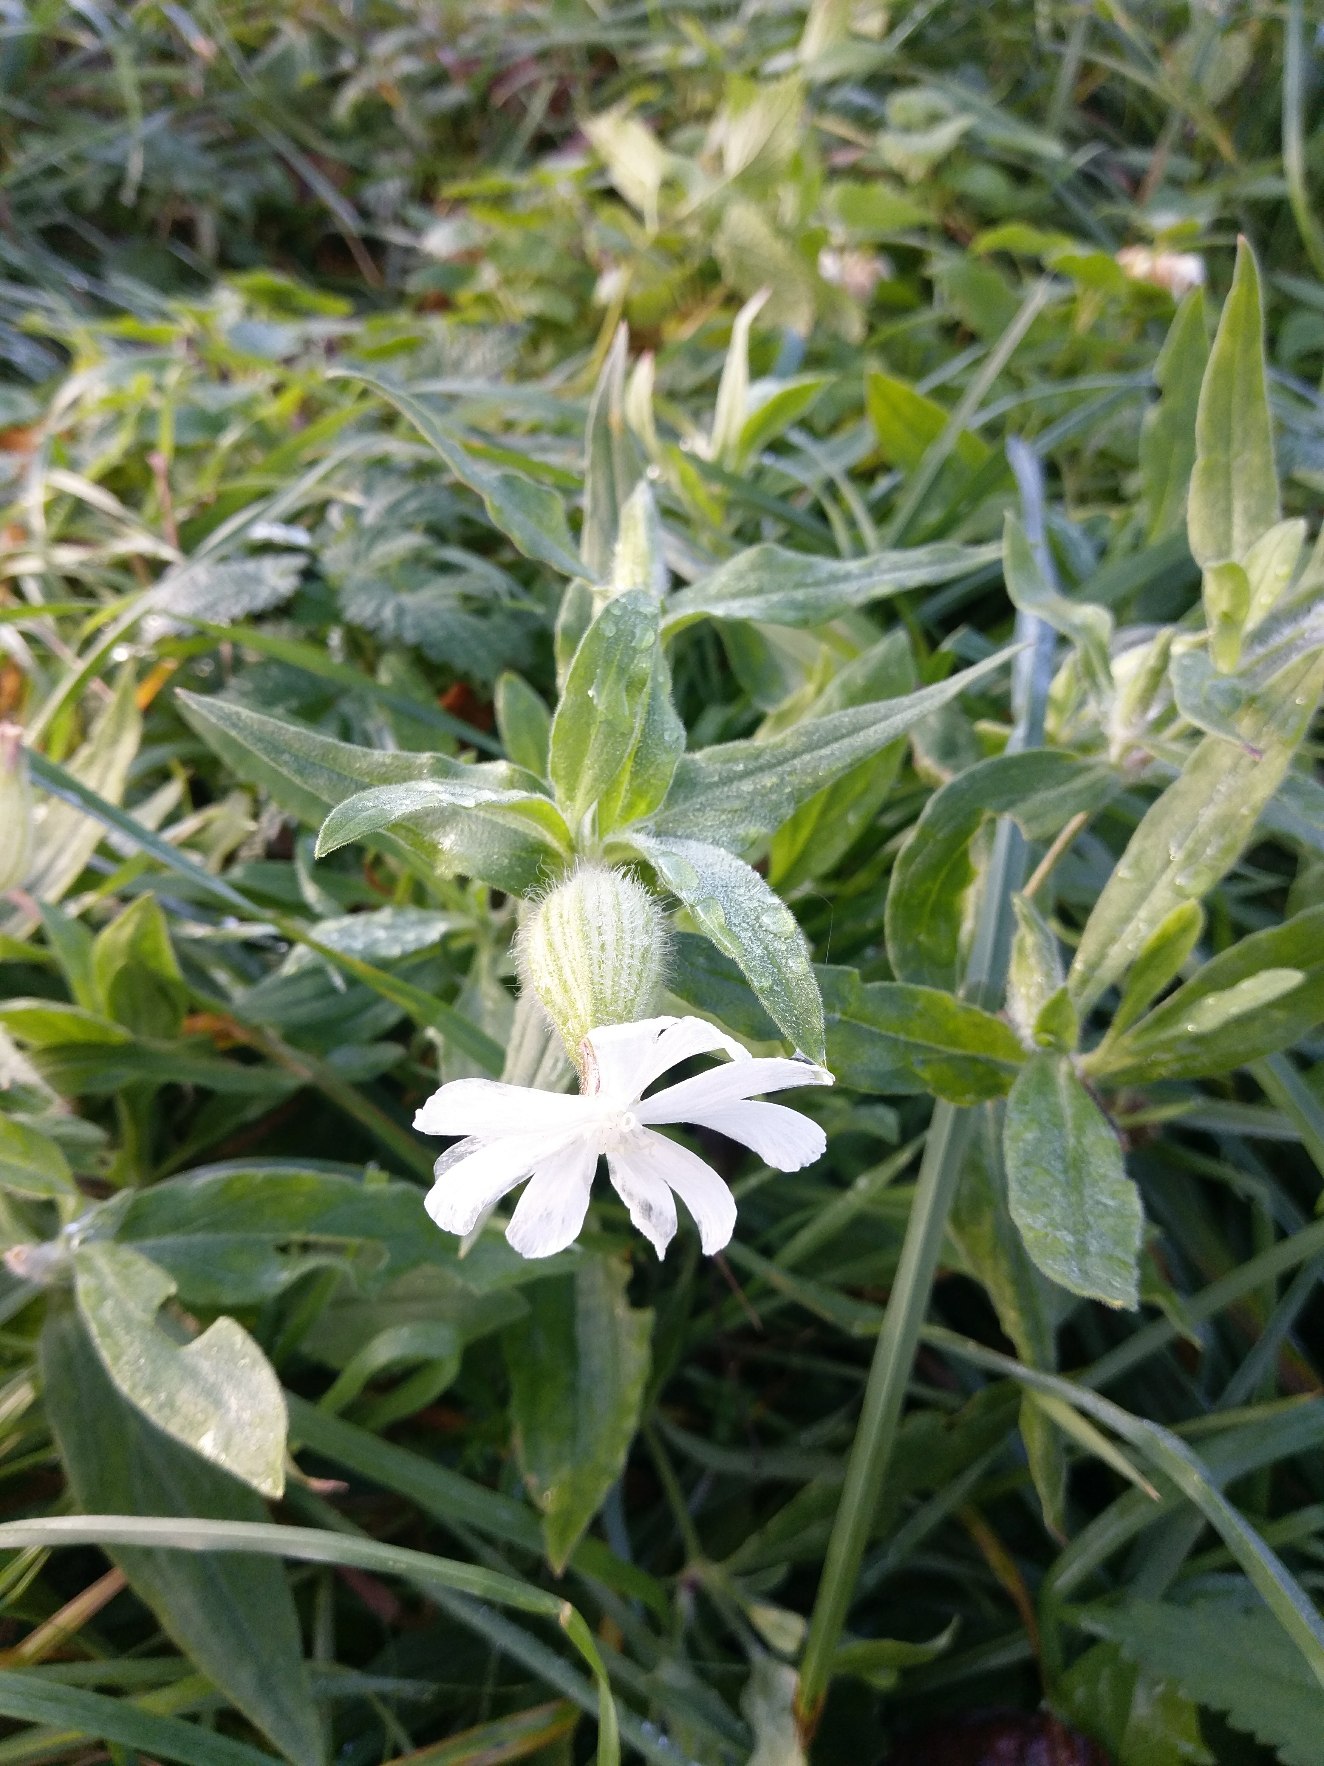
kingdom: Plantae
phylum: Tracheophyta
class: Magnoliopsida
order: Caryophyllales
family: Caryophyllaceae
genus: Silene
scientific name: Silene latifolia
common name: Aftenpragtstjerne
